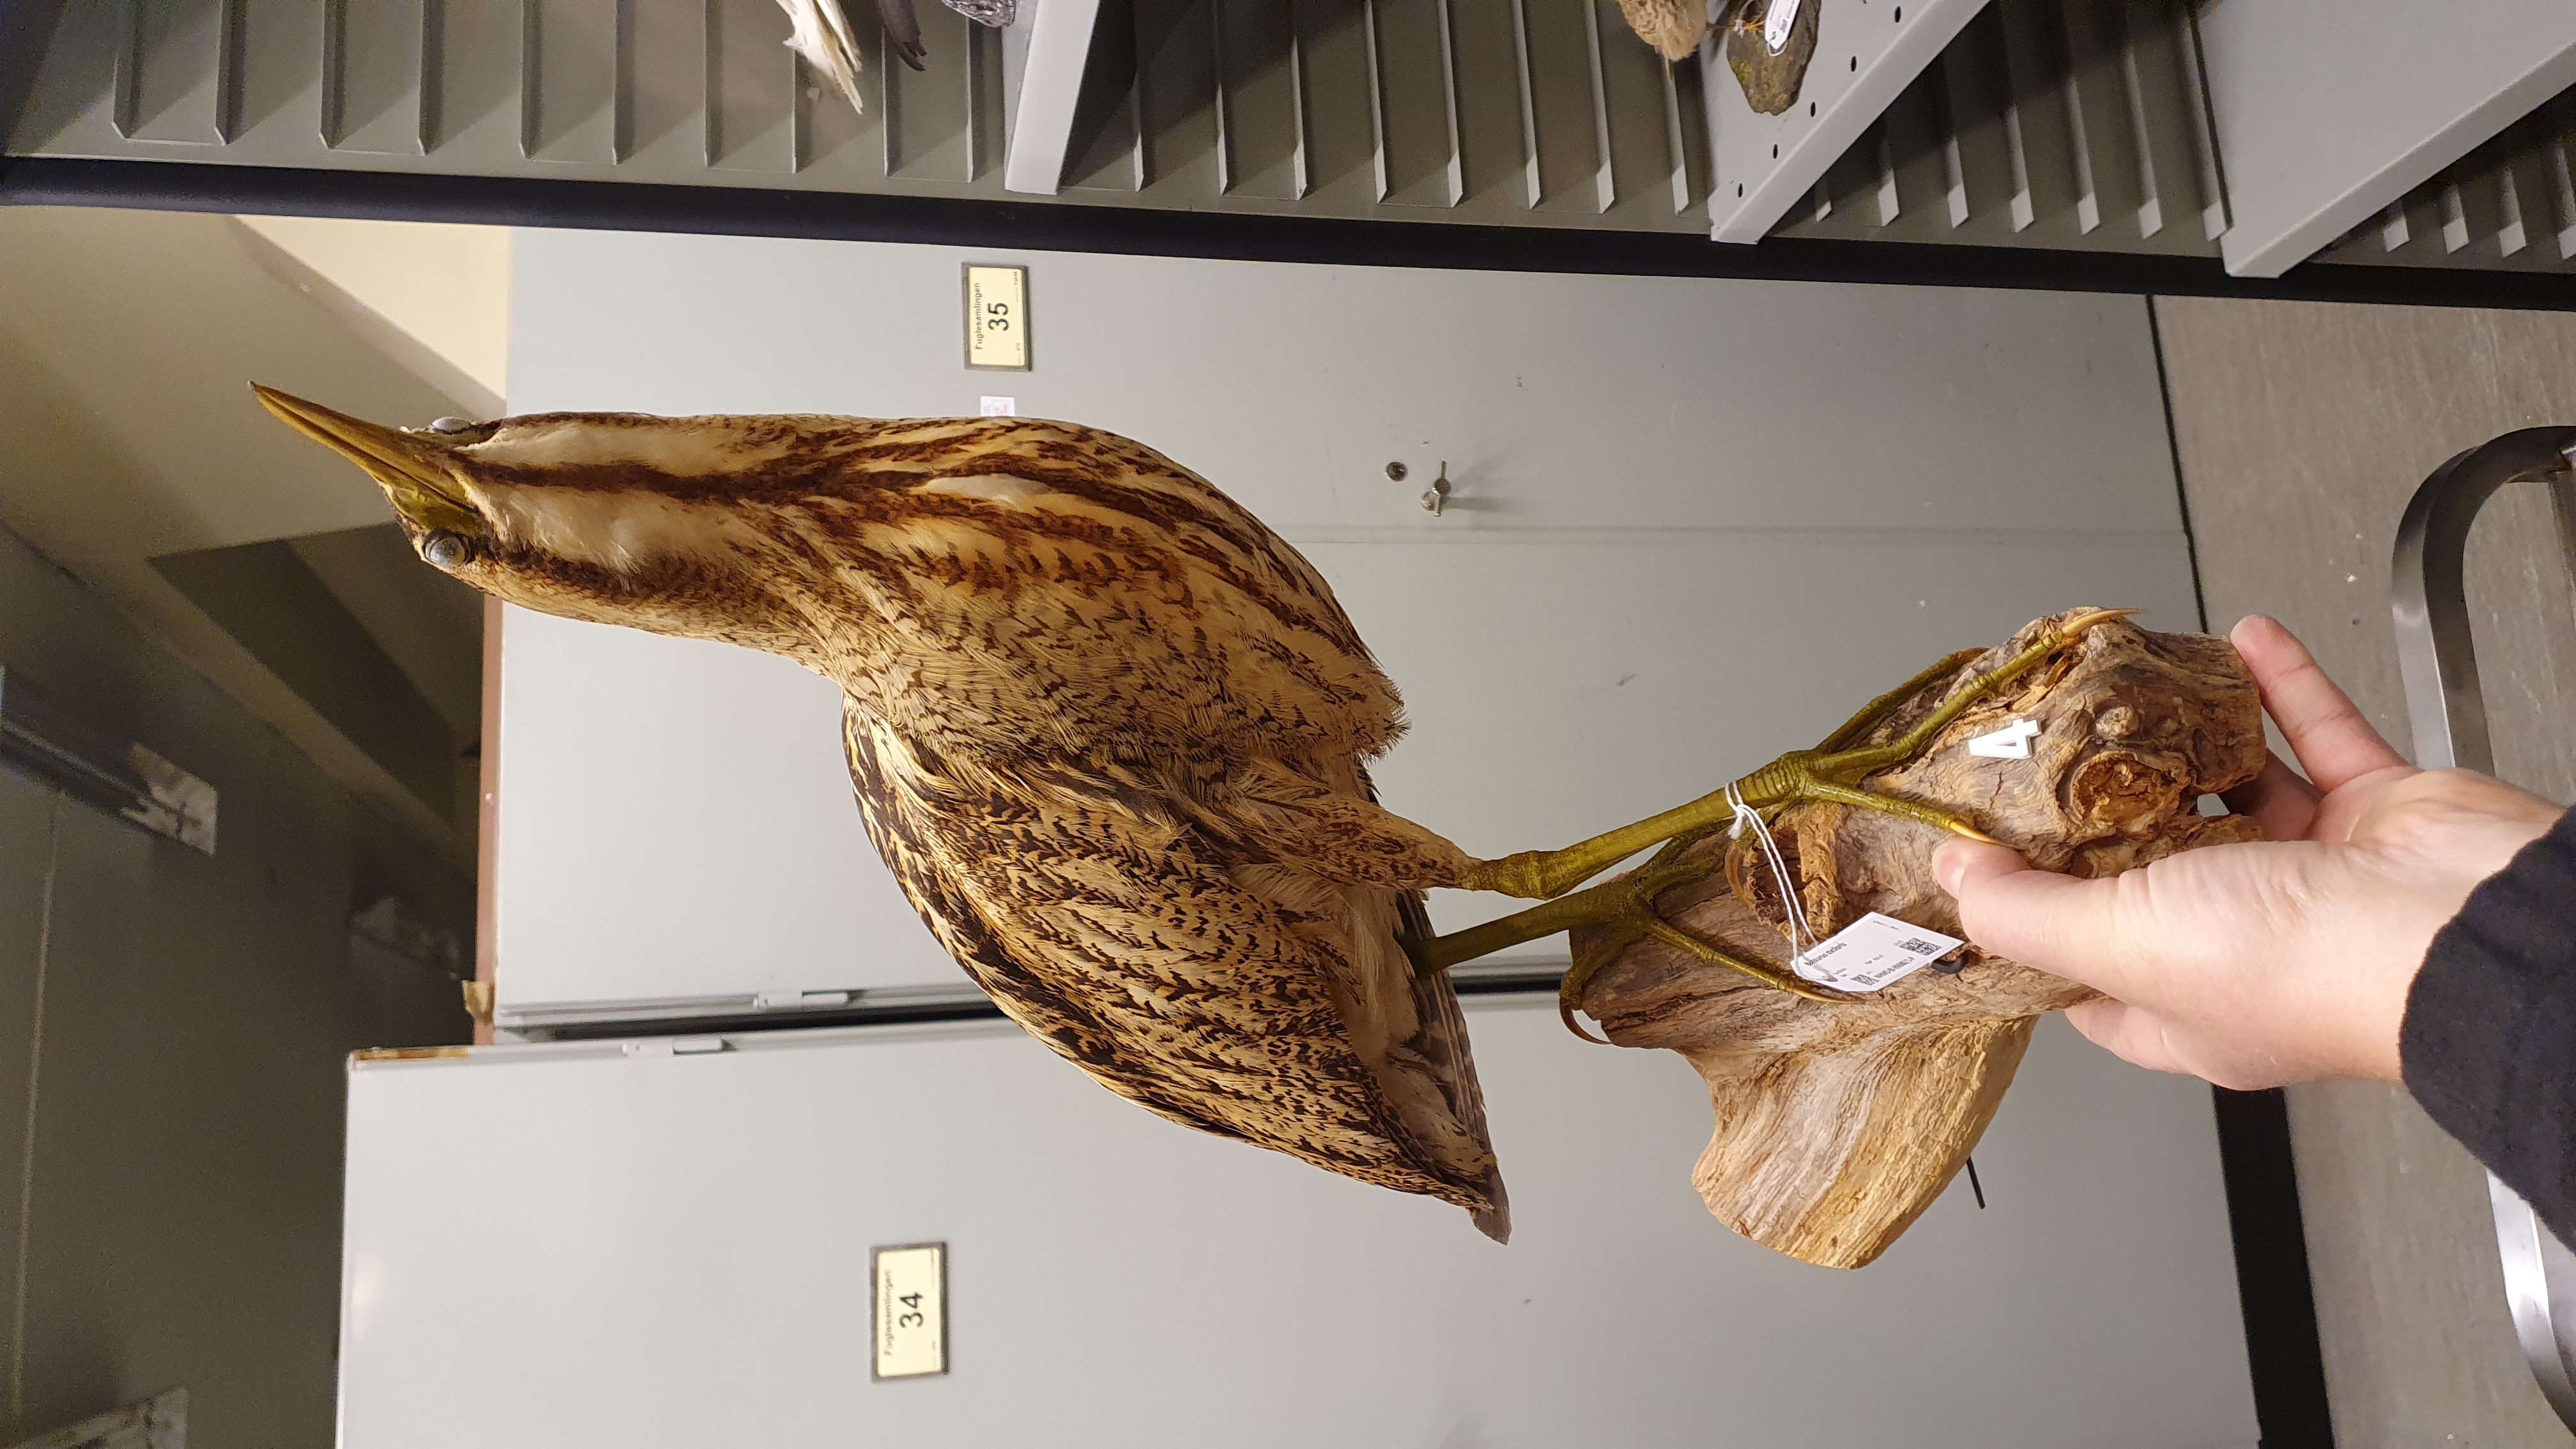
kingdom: Animalia
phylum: Chordata
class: Aves
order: Pelecaniformes
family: Ardeidae
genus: Botaurus
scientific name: Botaurus stellaris
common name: Eurasian bittern
